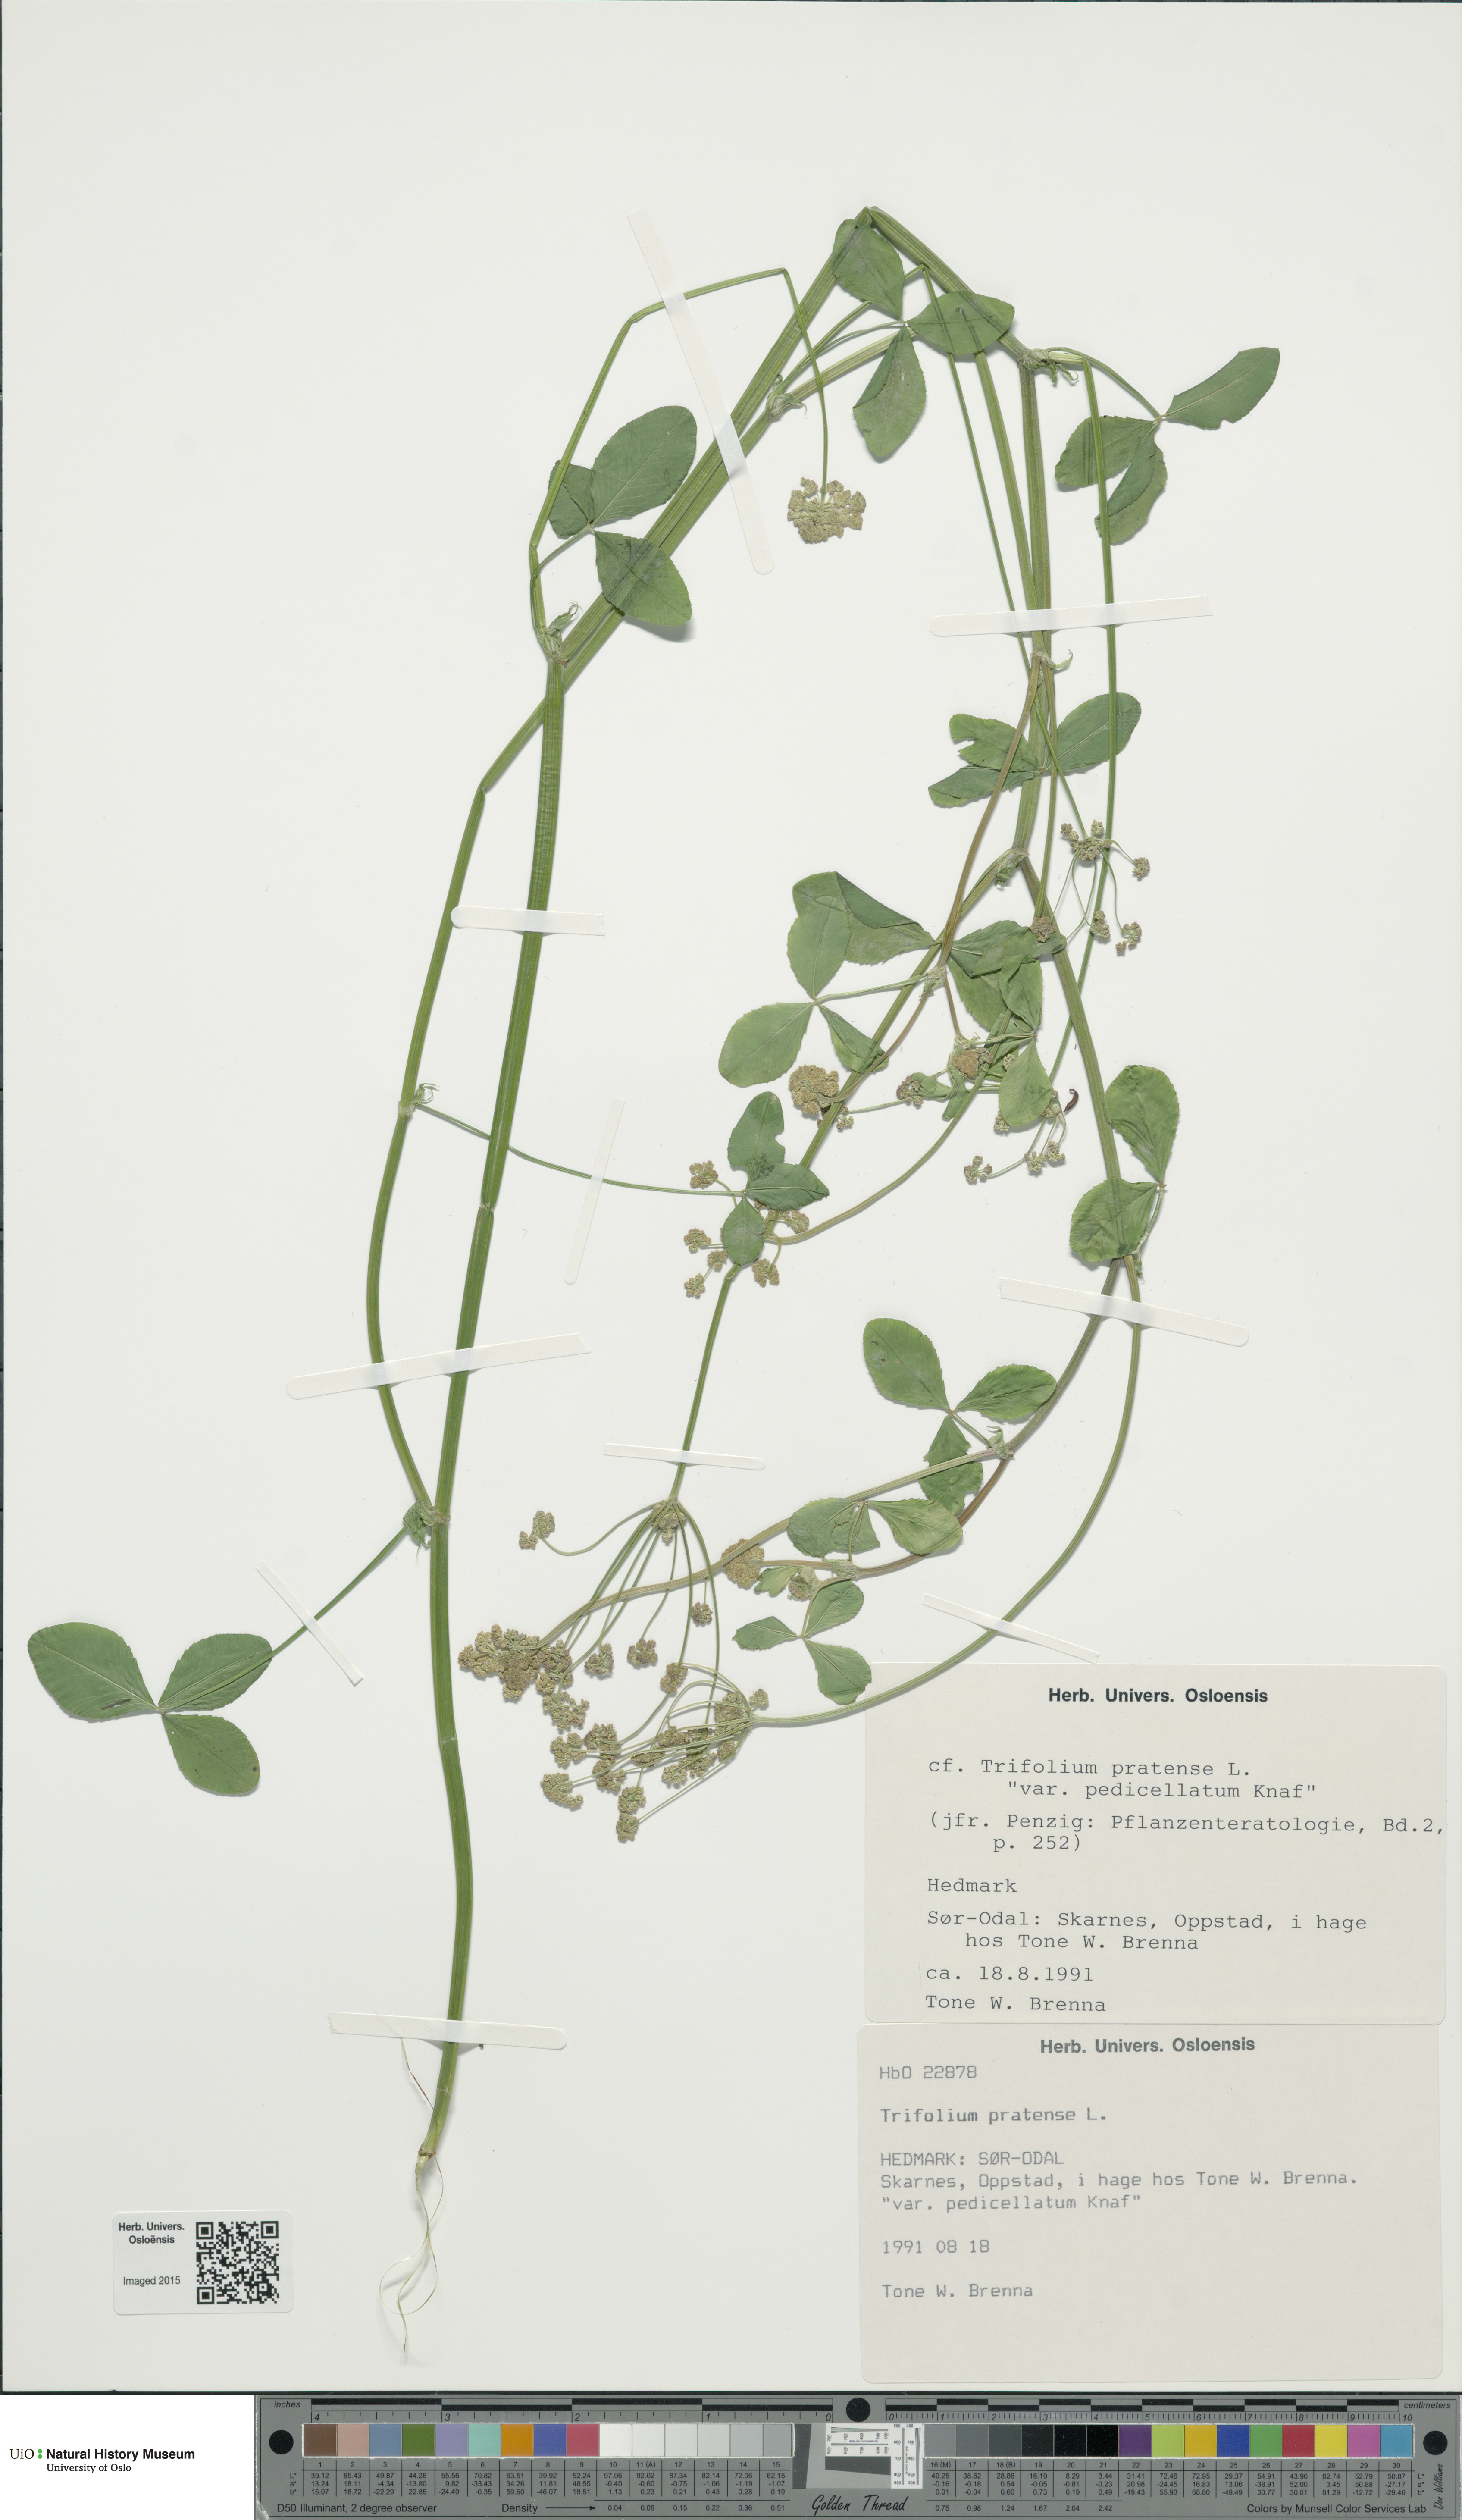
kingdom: Plantae
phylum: Tracheophyta
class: Magnoliopsida
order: Fabales
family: Fabaceae
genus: Trifolium
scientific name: Trifolium pratense
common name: Red clover
